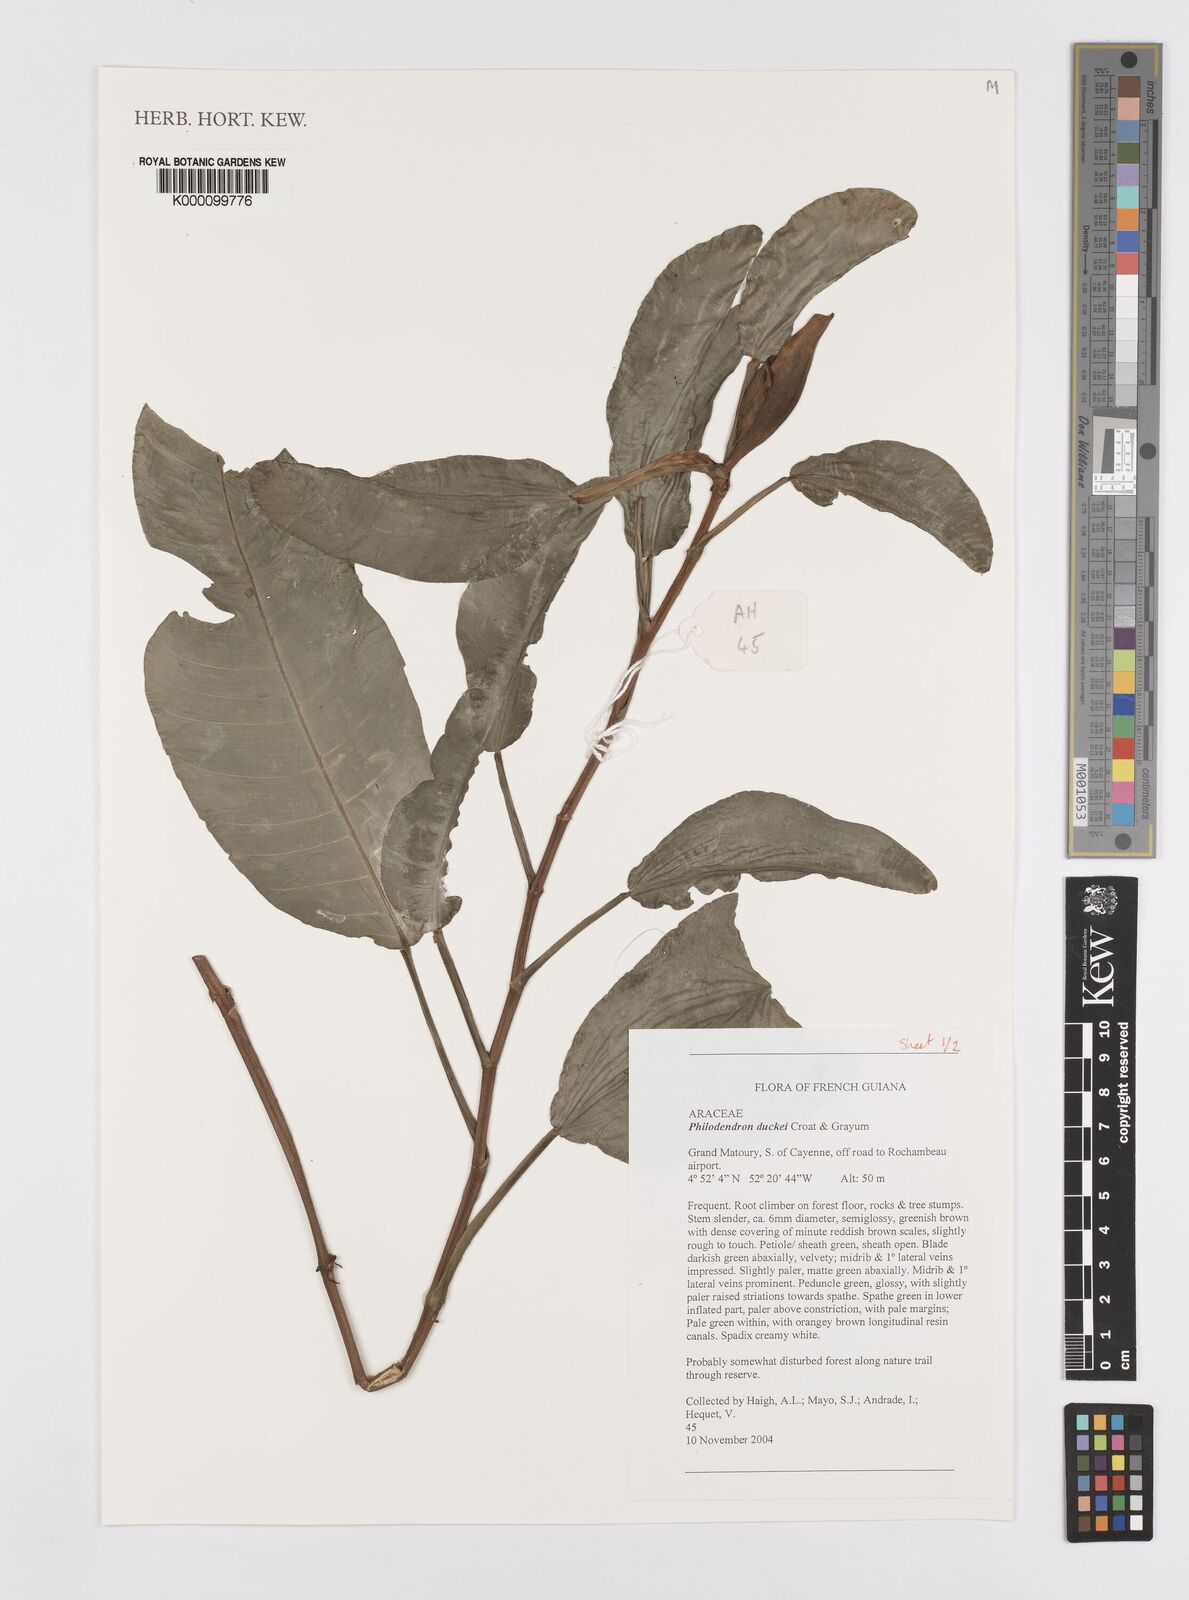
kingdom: Plantae
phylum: Tracheophyta
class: Liliopsida
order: Alismatales
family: Araceae
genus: Philodendron
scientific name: Philodendron duckei
